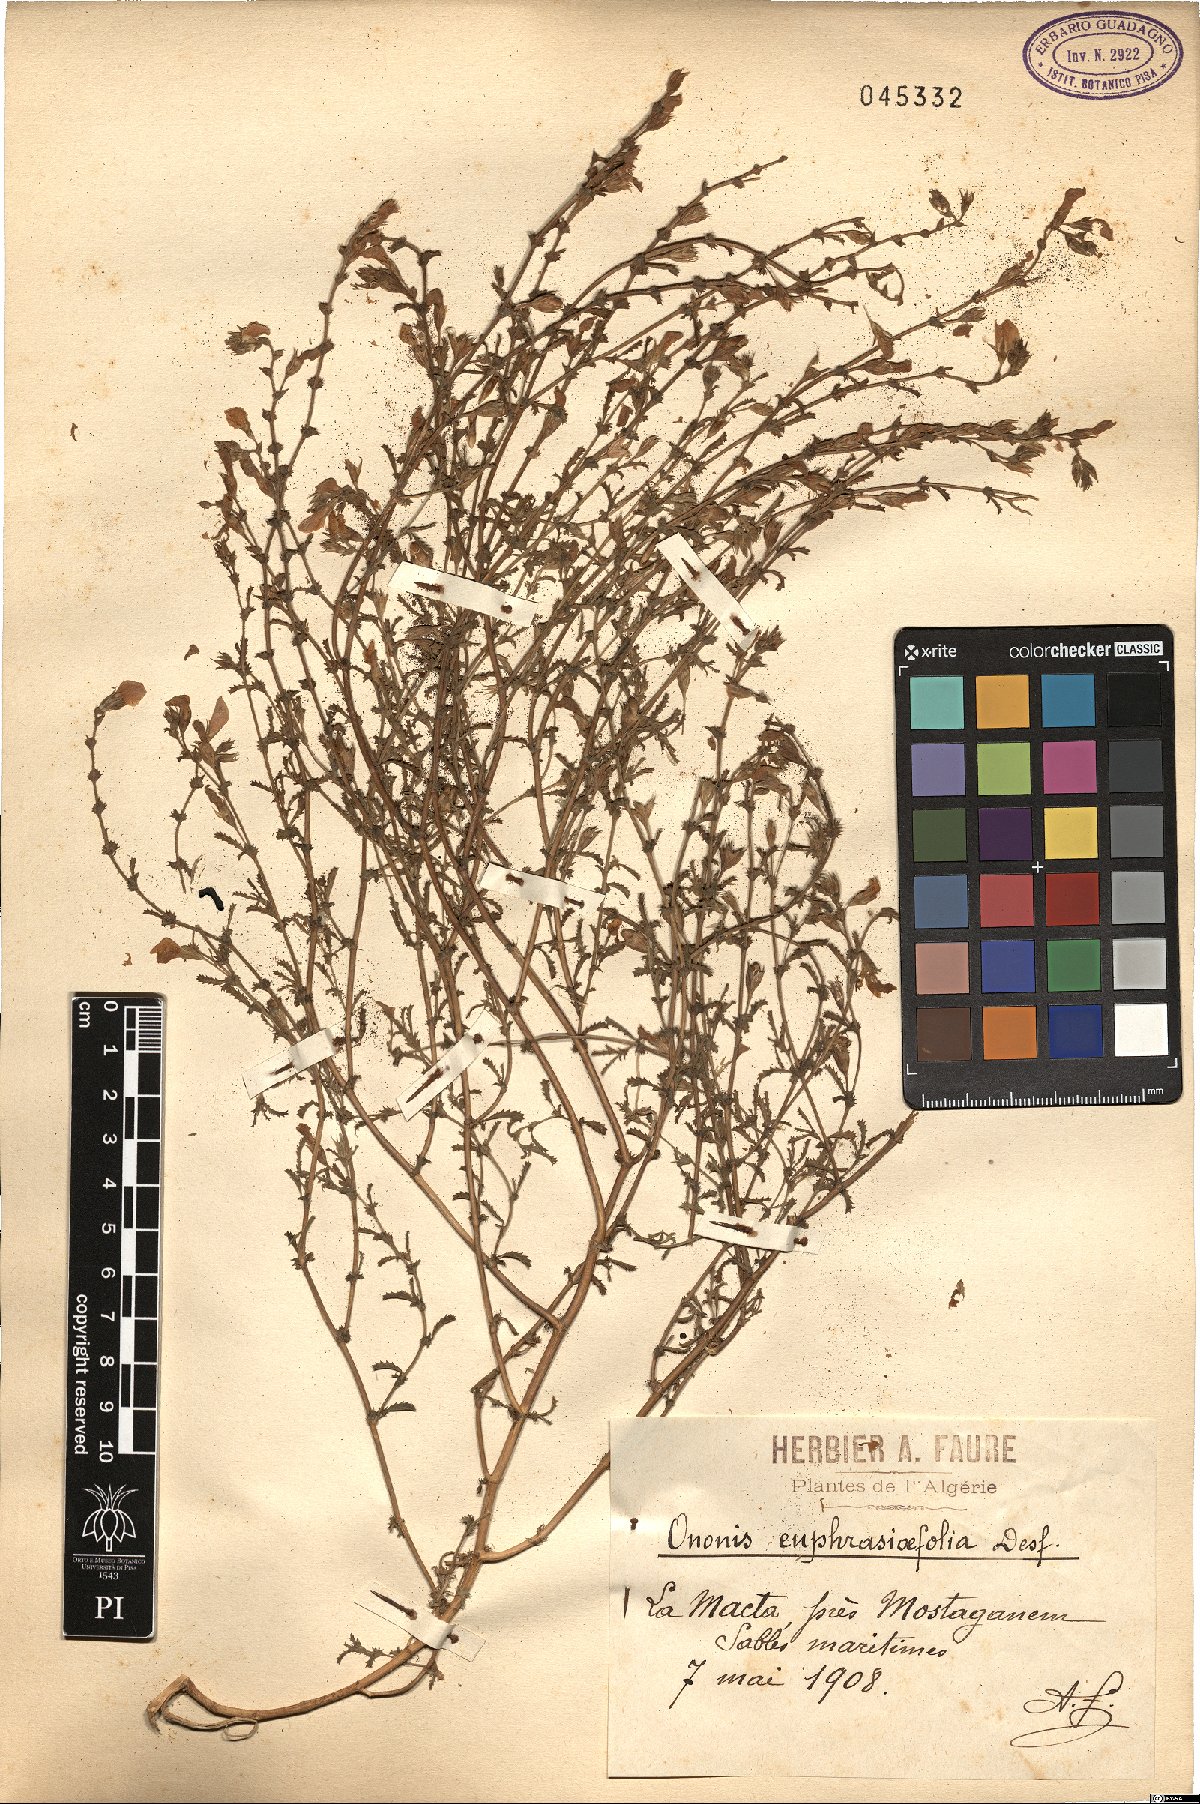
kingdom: Plantae
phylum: Tracheophyta
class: Magnoliopsida
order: Fabales
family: Fabaceae
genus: Ononis
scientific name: Ononis euphrasiifolia
